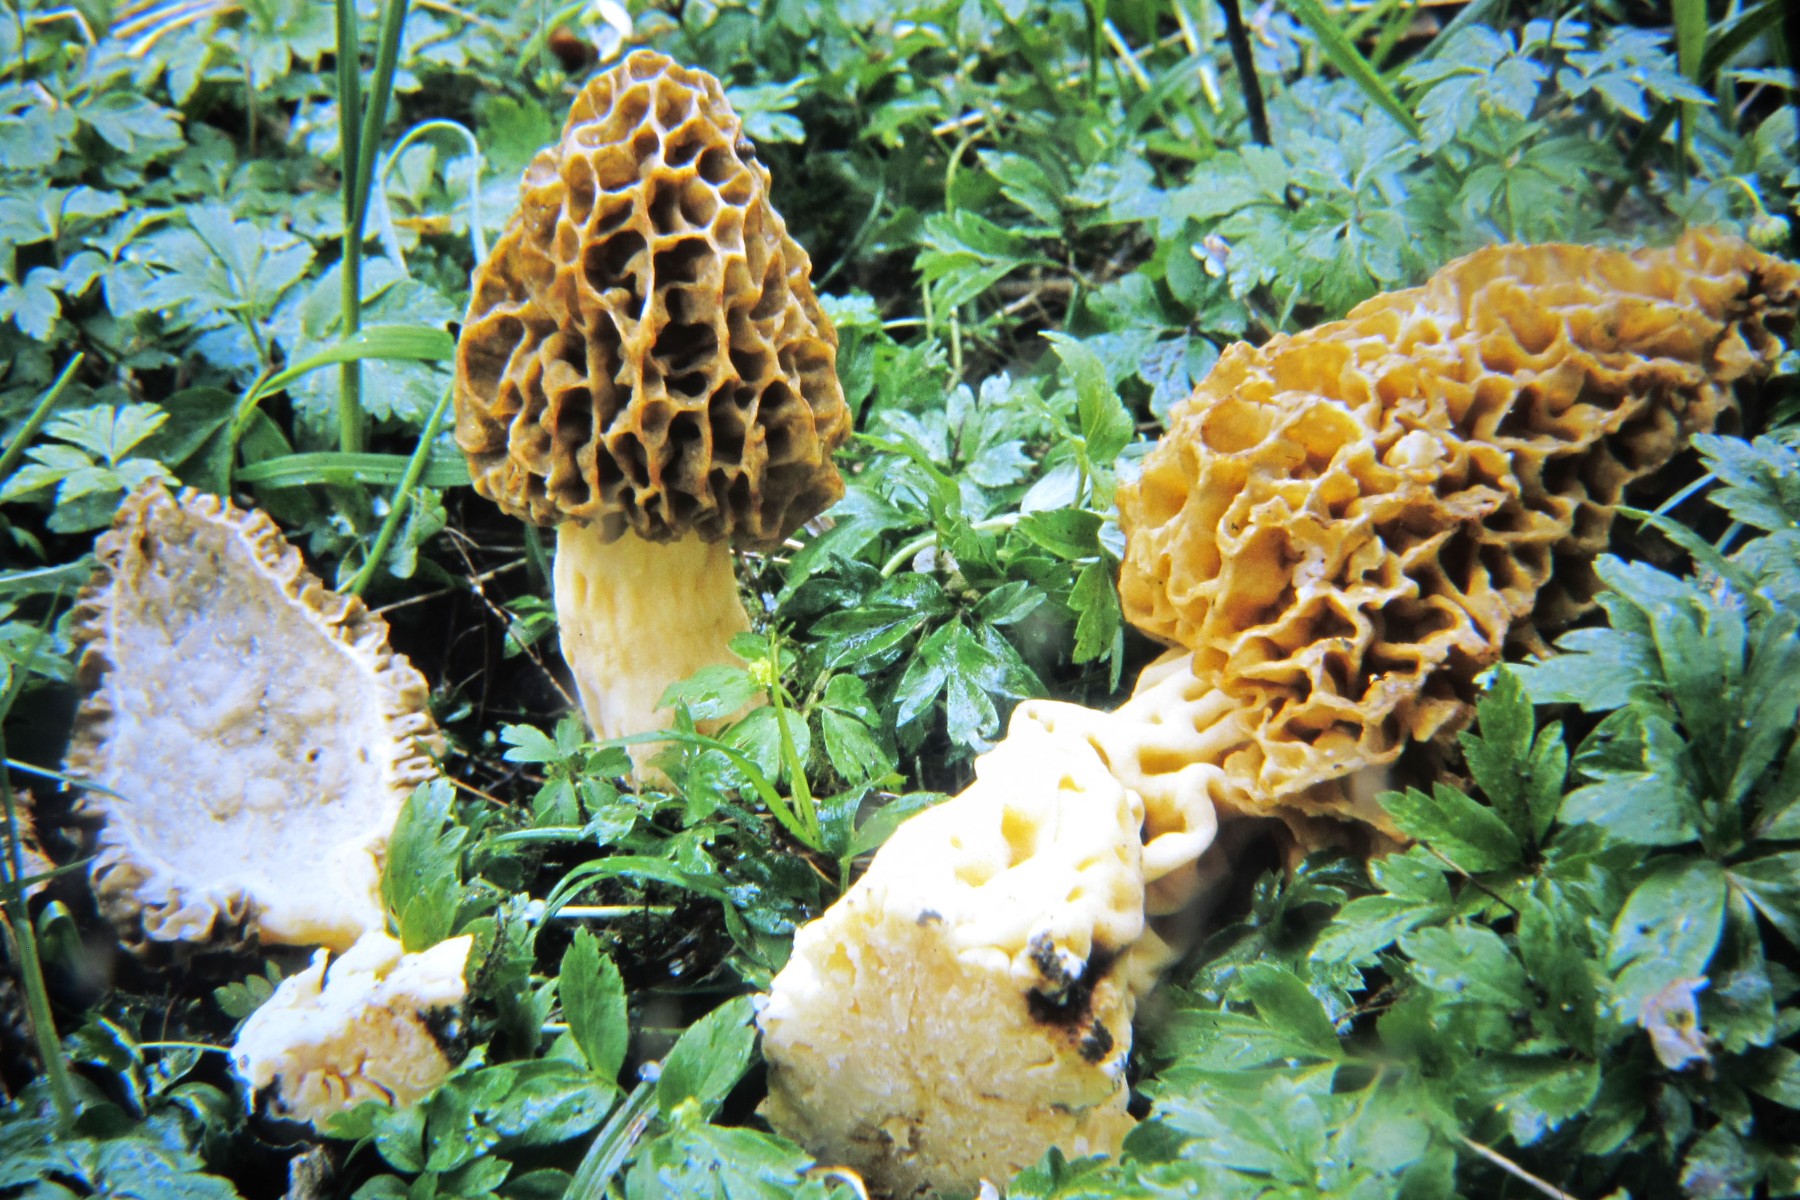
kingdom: Fungi
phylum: Ascomycota
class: Pezizomycetes
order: Pezizales
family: Morchellaceae
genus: Morchella
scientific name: Morchella esculenta
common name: spiselig morkel
